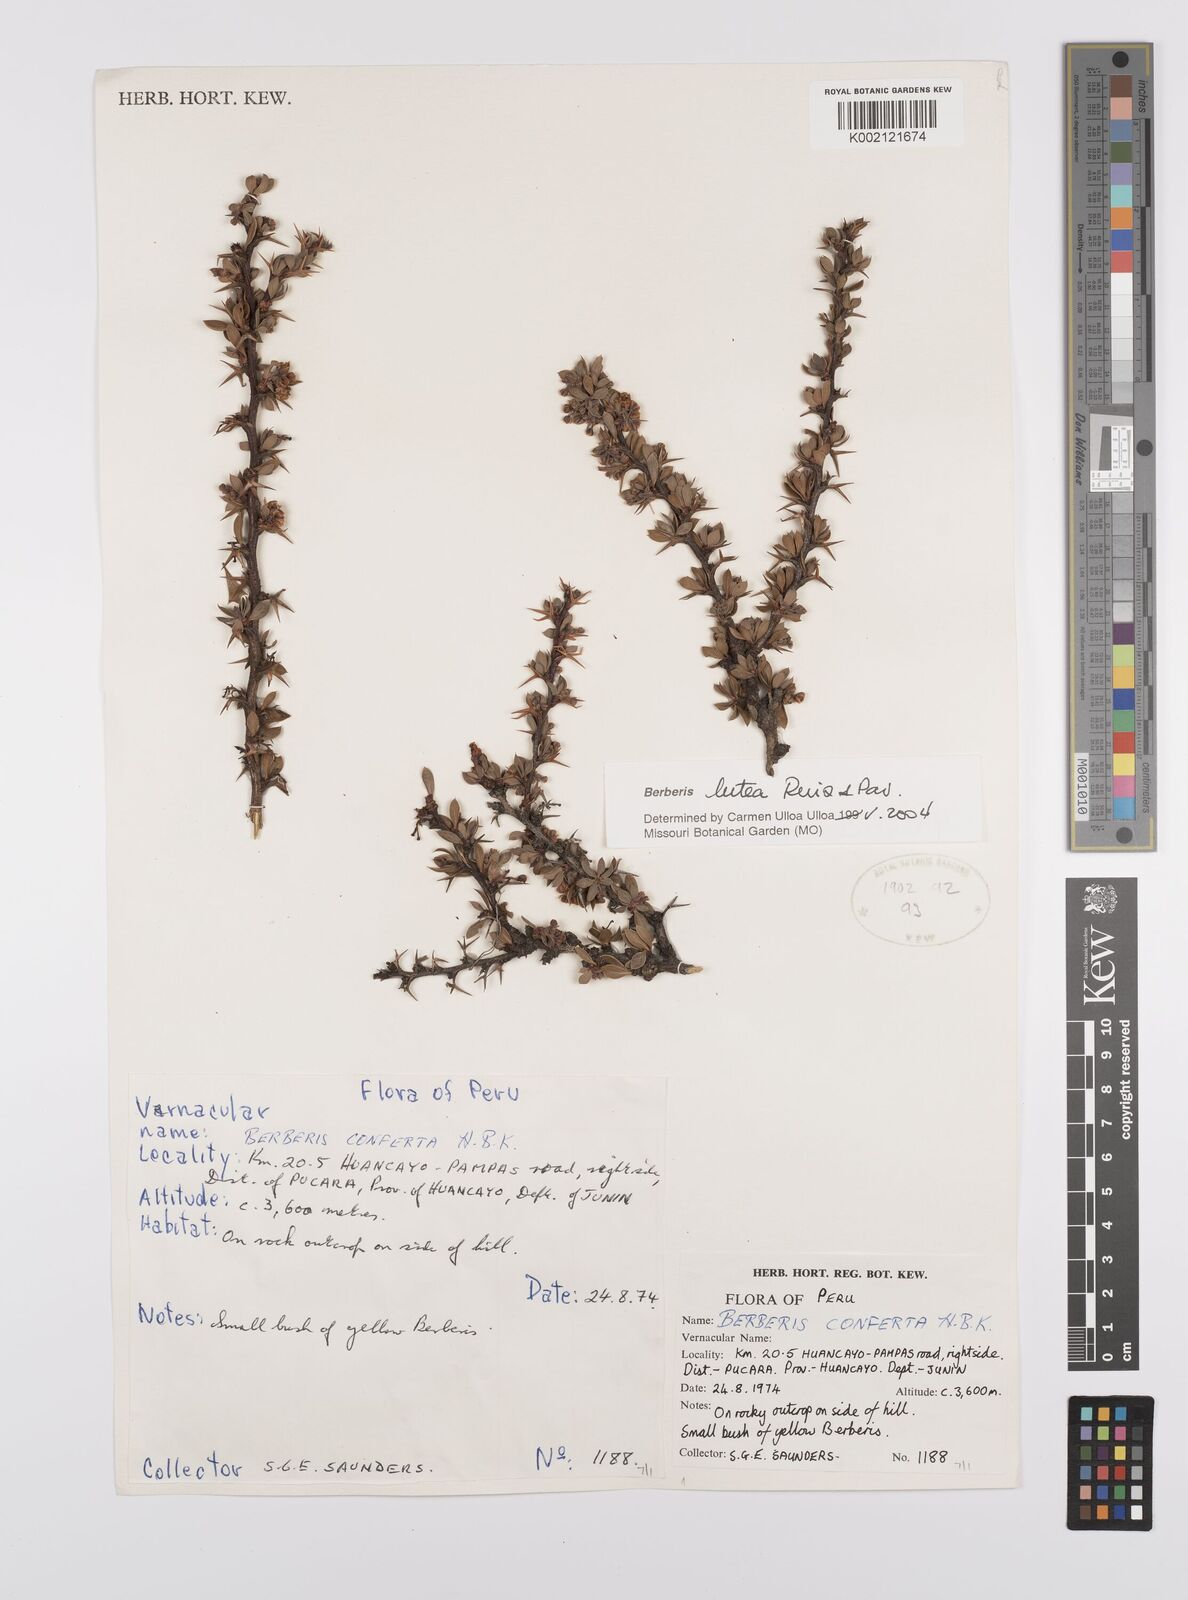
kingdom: Plantae
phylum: Tracheophyta
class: Magnoliopsida
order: Ranunculales
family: Berberidaceae
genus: Berberis
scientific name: Berberis lutea
